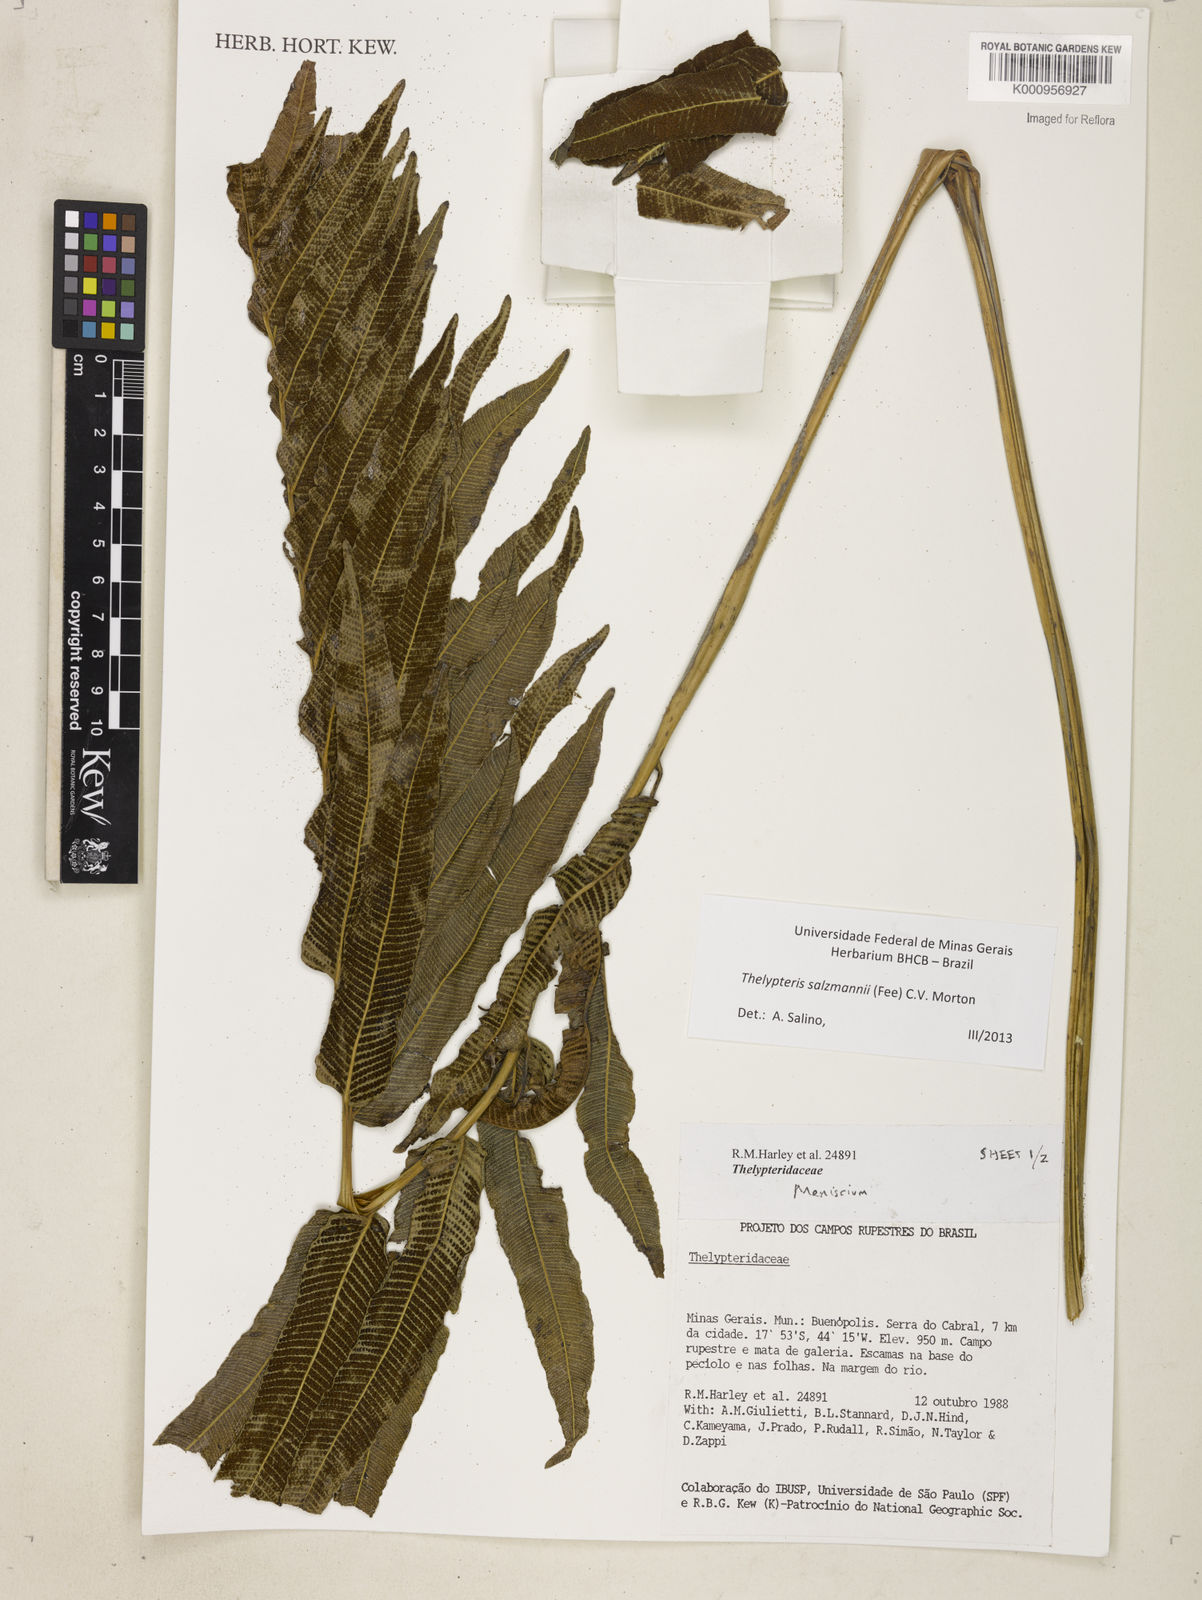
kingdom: Plantae
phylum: Tracheophyta
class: Polypodiopsida
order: Polypodiales
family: Thelypteridaceae
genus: Meniscium
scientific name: Meniscium arborescens
